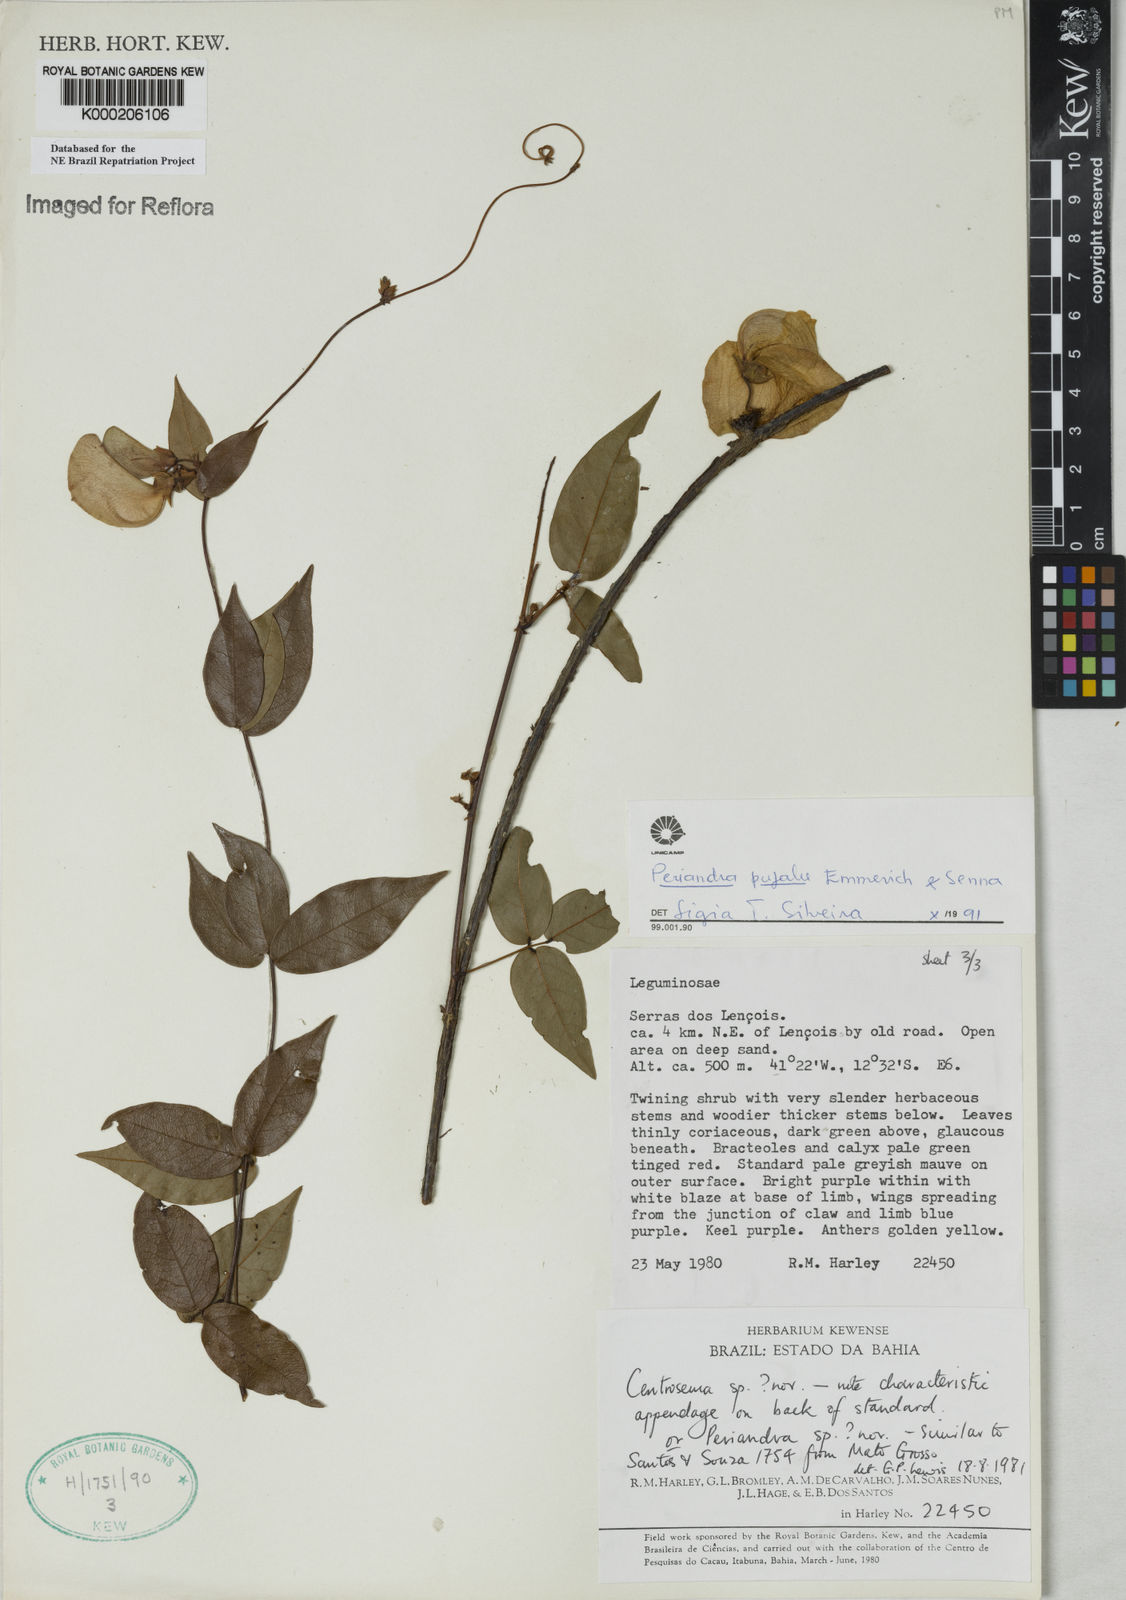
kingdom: Plantae
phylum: Tracheophyta
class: Magnoliopsida
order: Fabales
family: Fabaceae
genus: Periandra
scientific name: Periandra pujalu
